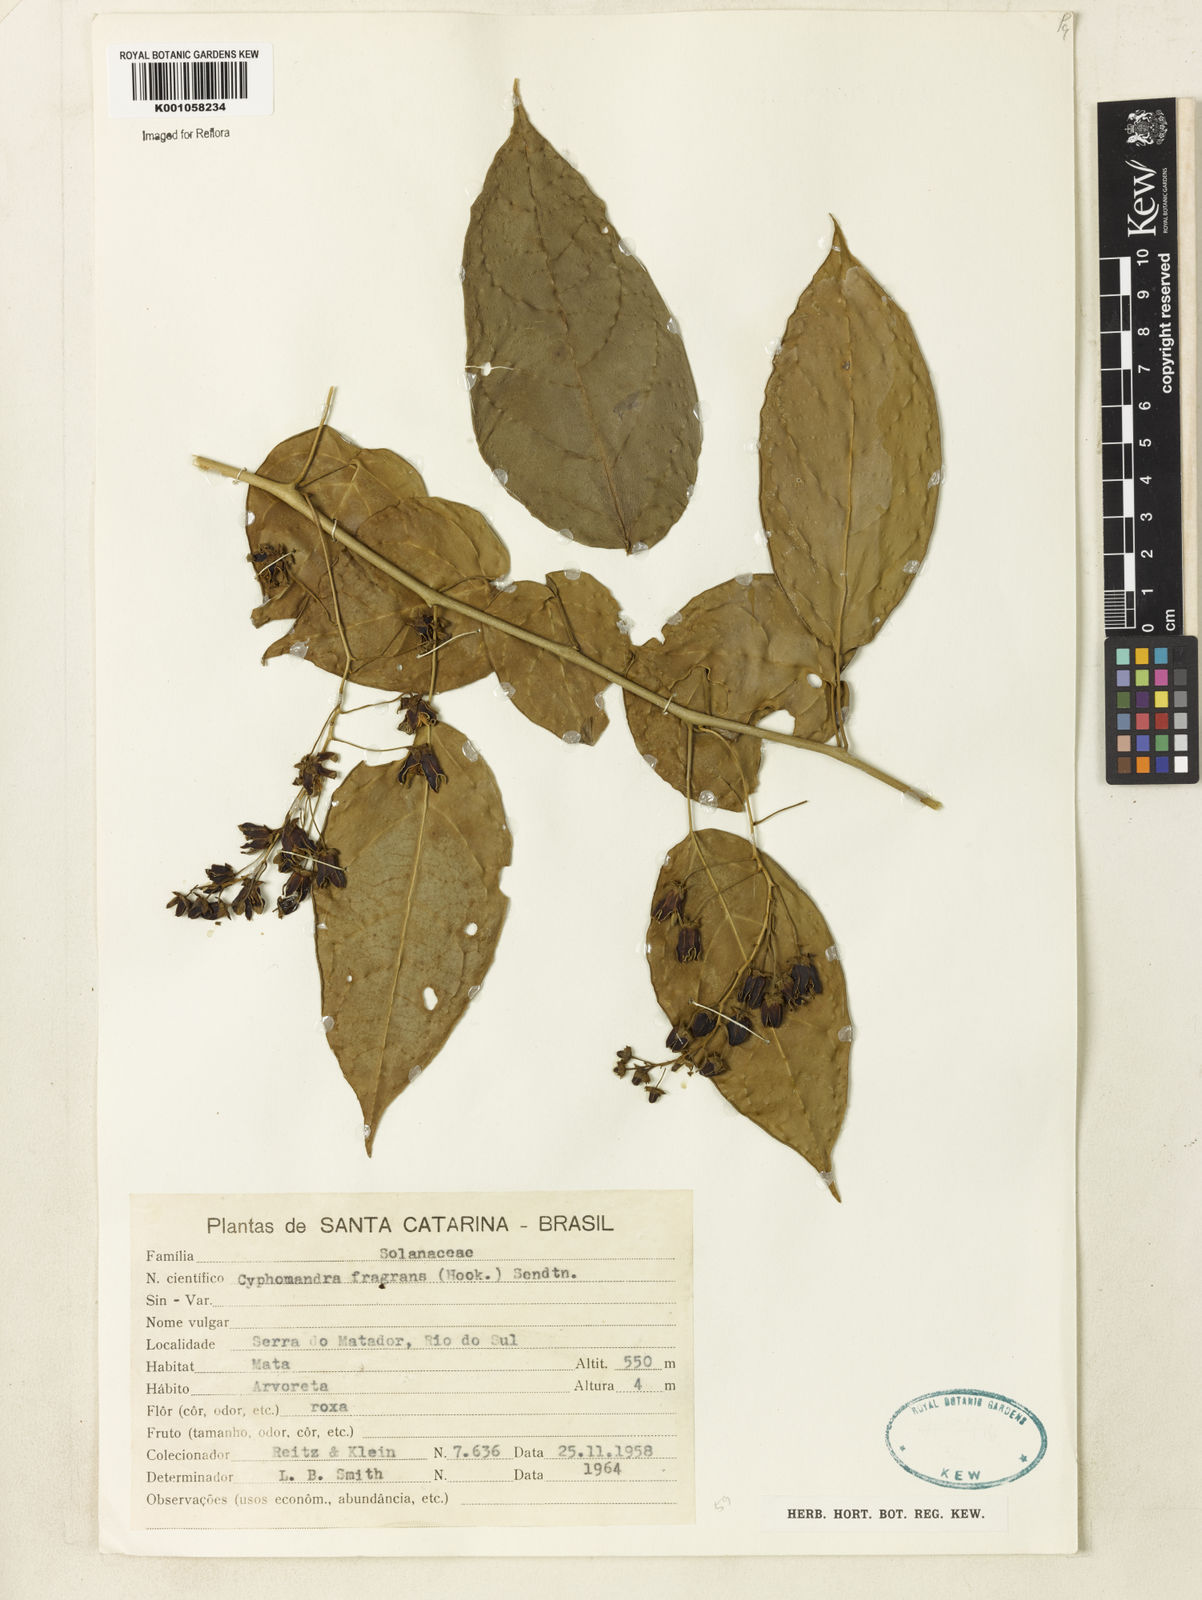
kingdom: Plantae
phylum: Tracheophyta
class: Magnoliopsida
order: Solanales
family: Solanaceae
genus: Solanum
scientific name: Solanum diploconos
